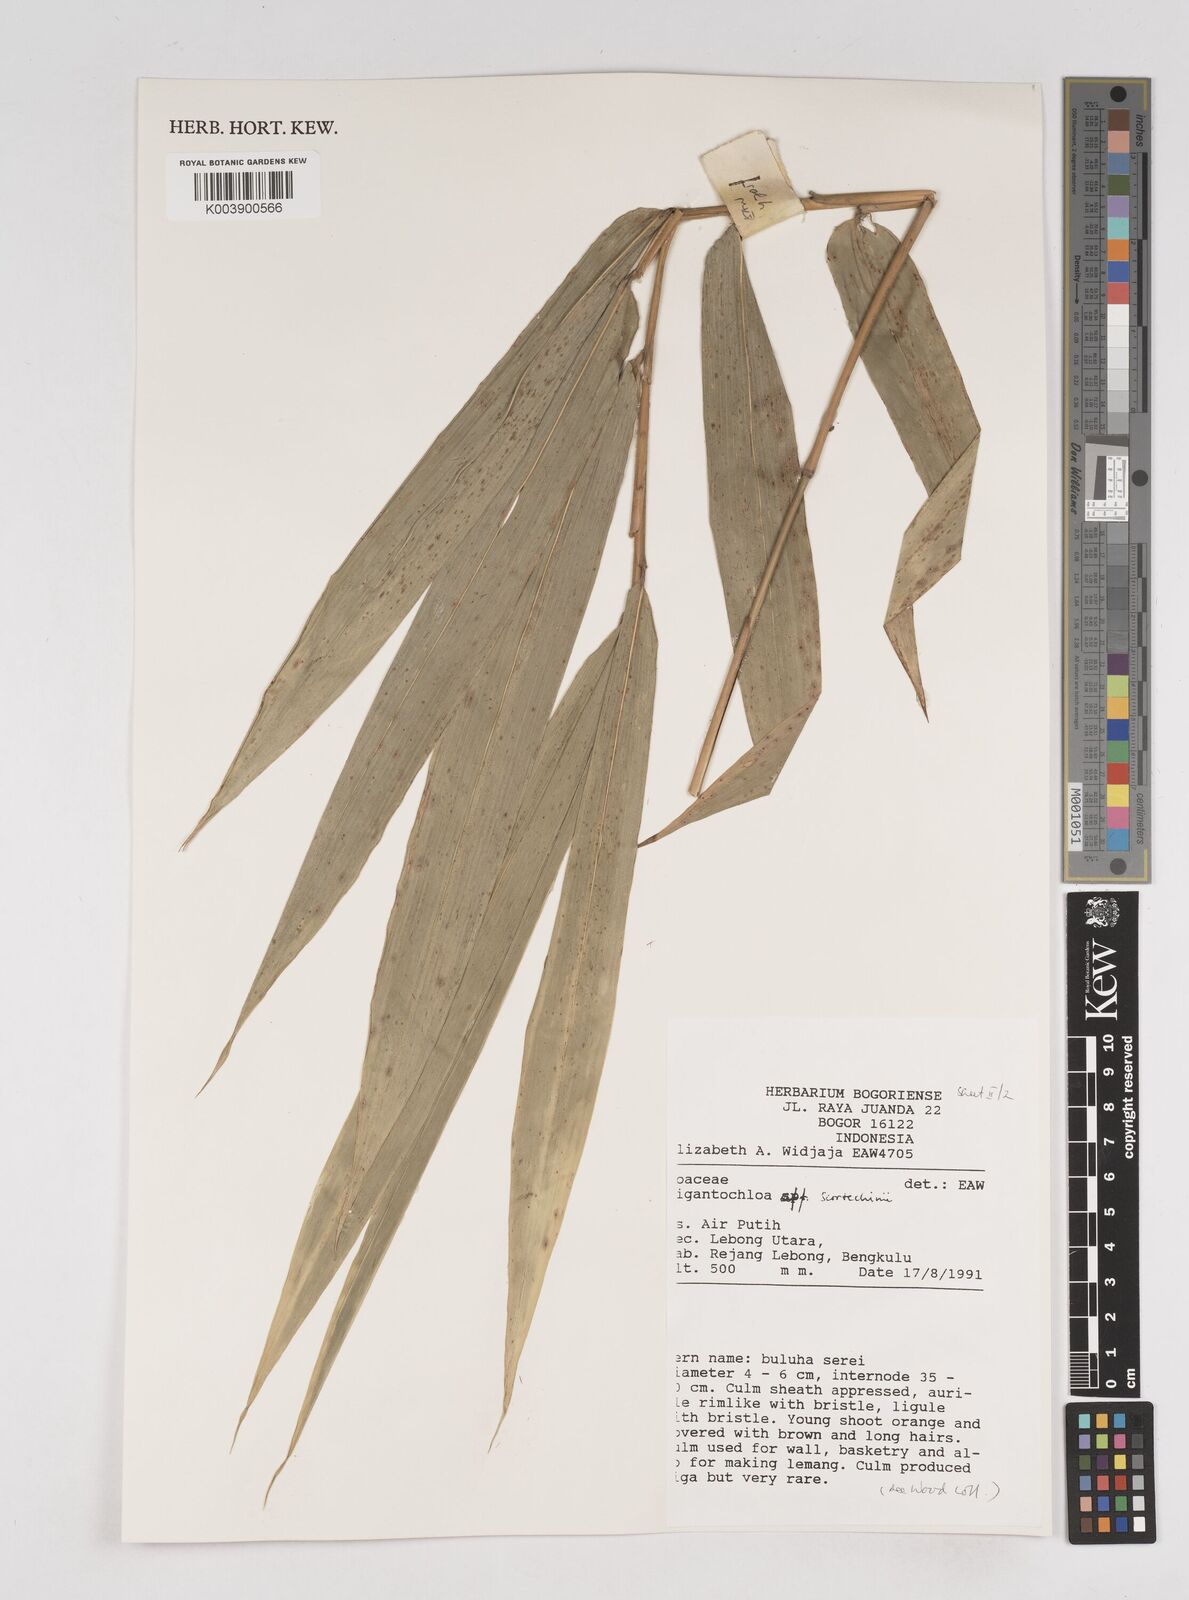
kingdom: Plantae
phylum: Tracheophyta
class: Liliopsida
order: Poales
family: Poaceae
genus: Gigantochloa
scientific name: Gigantochloa scortechinii
